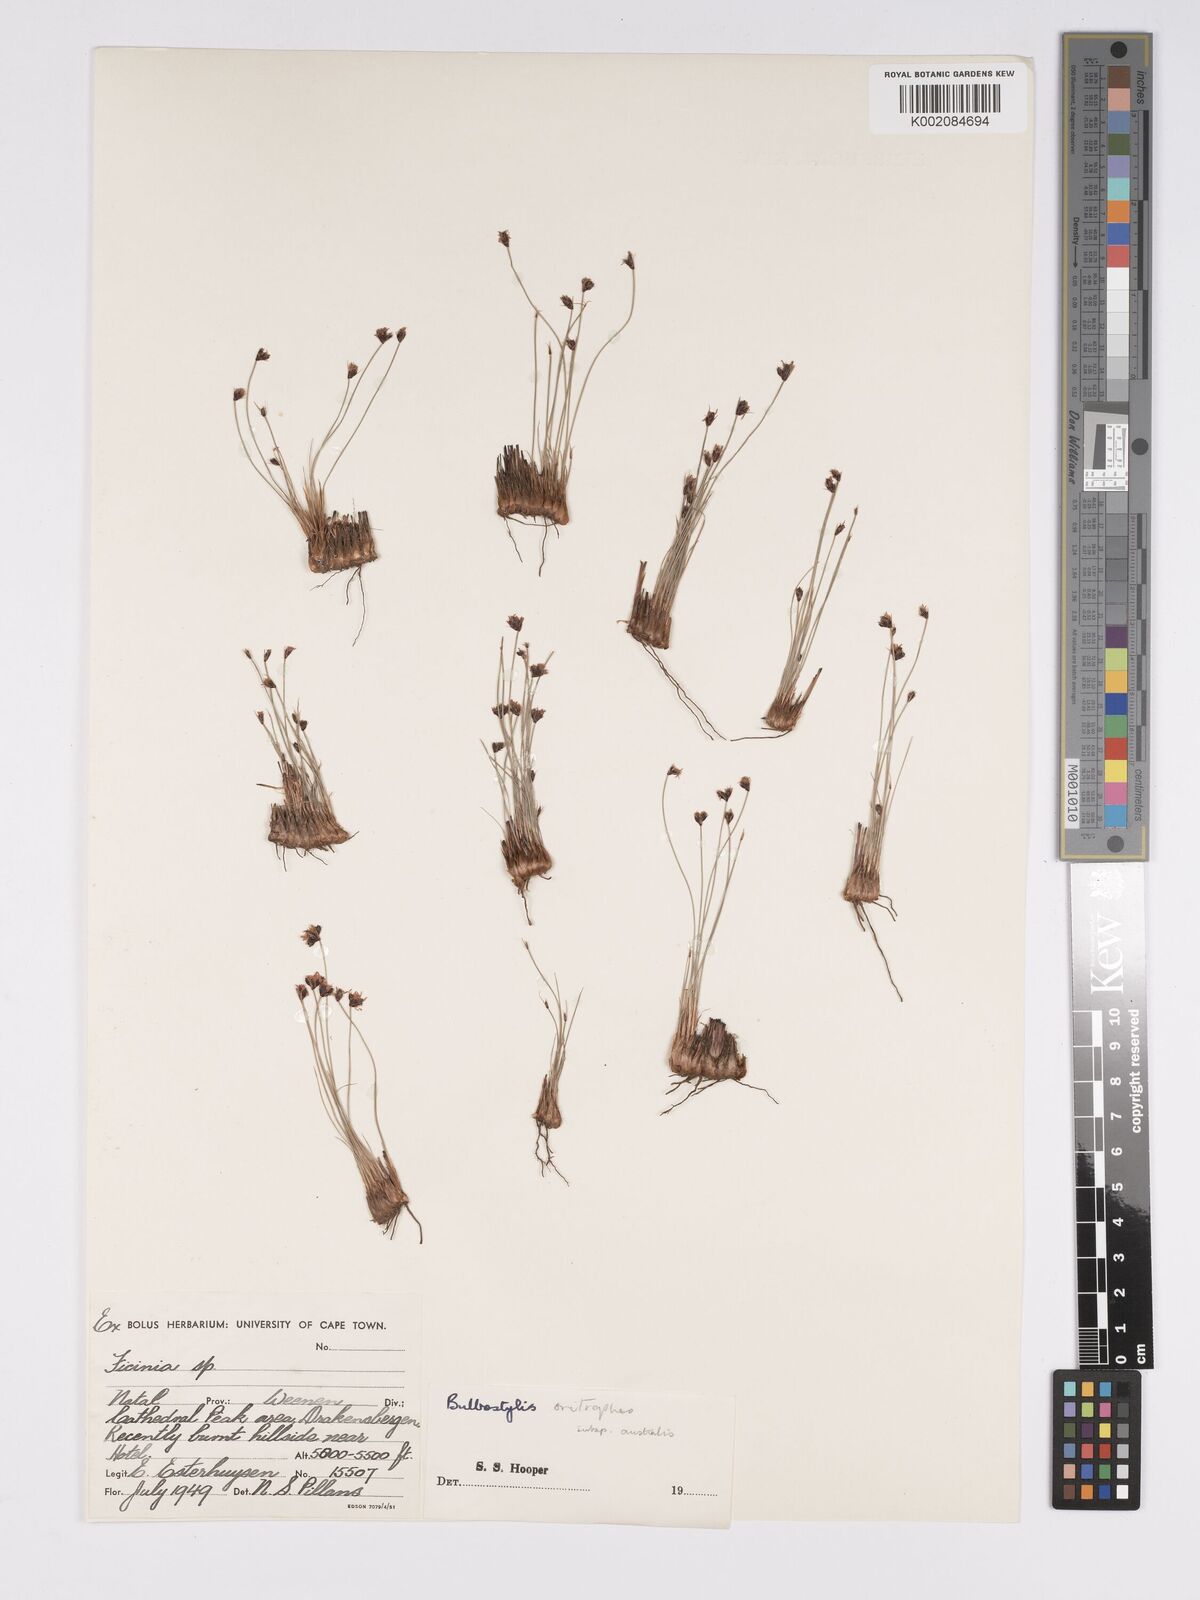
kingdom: Plantae
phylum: Tracheophyta
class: Liliopsida
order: Poales
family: Cyperaceae
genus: Bulbostylis
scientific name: Bulbostylis trichobasis
